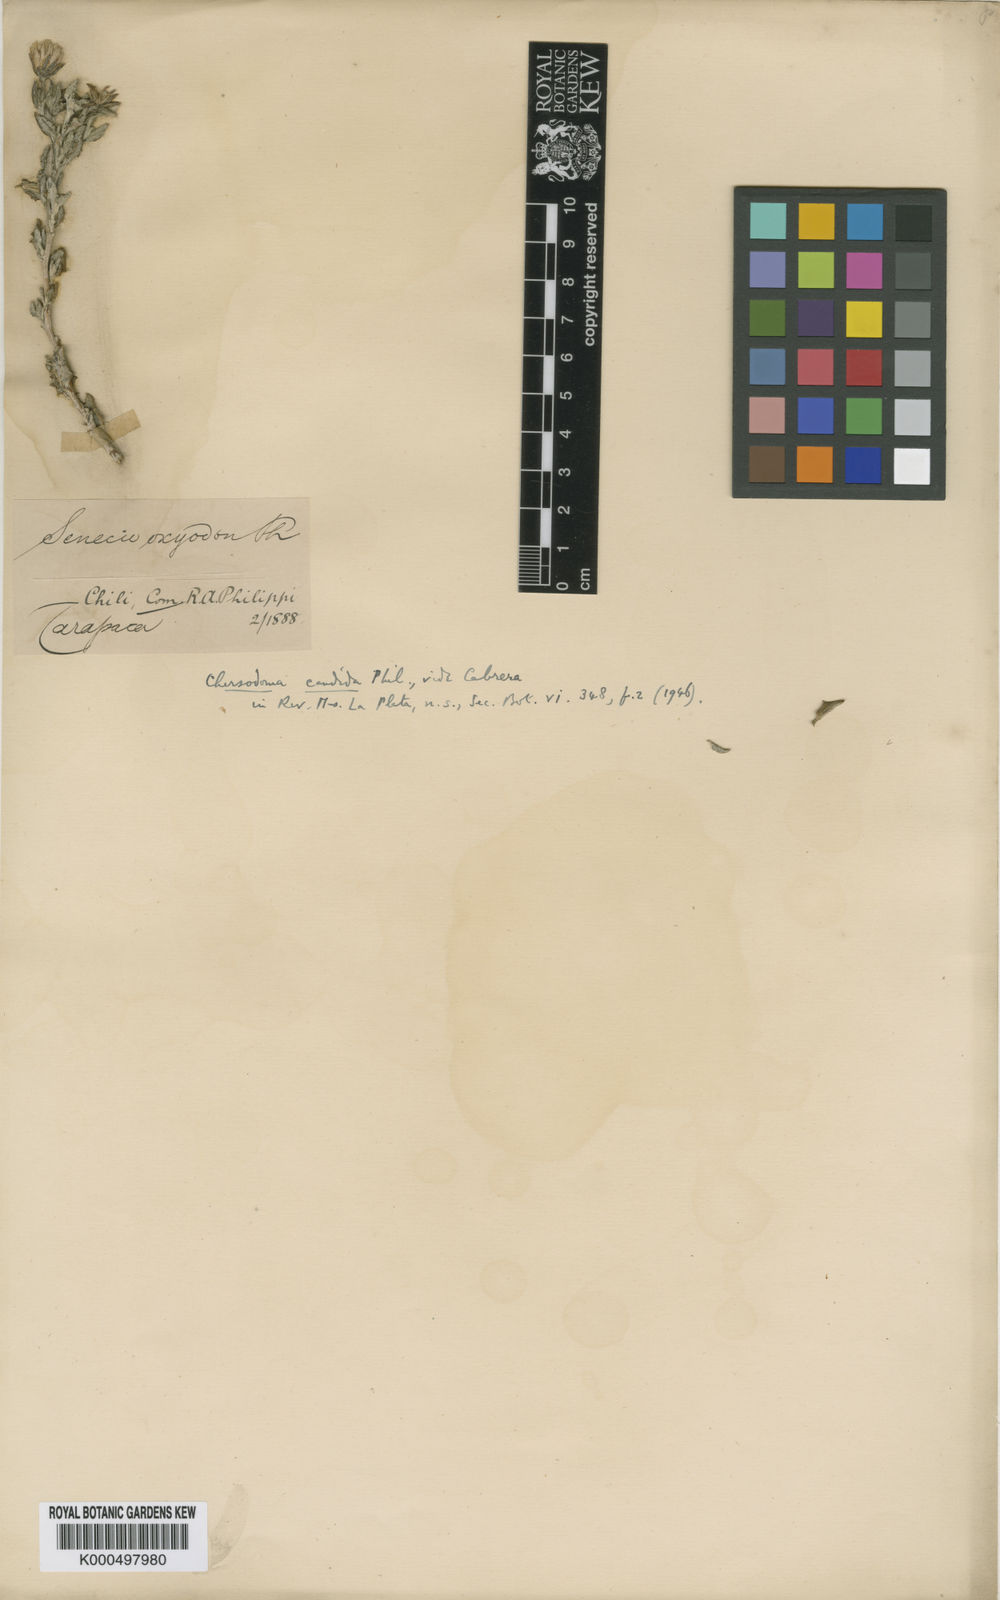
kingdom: Plantae
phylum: Tracheophyta
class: Magnoliopsida
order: Asterales
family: Asteraceae
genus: Chersodoma
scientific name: Chersodoma candida
